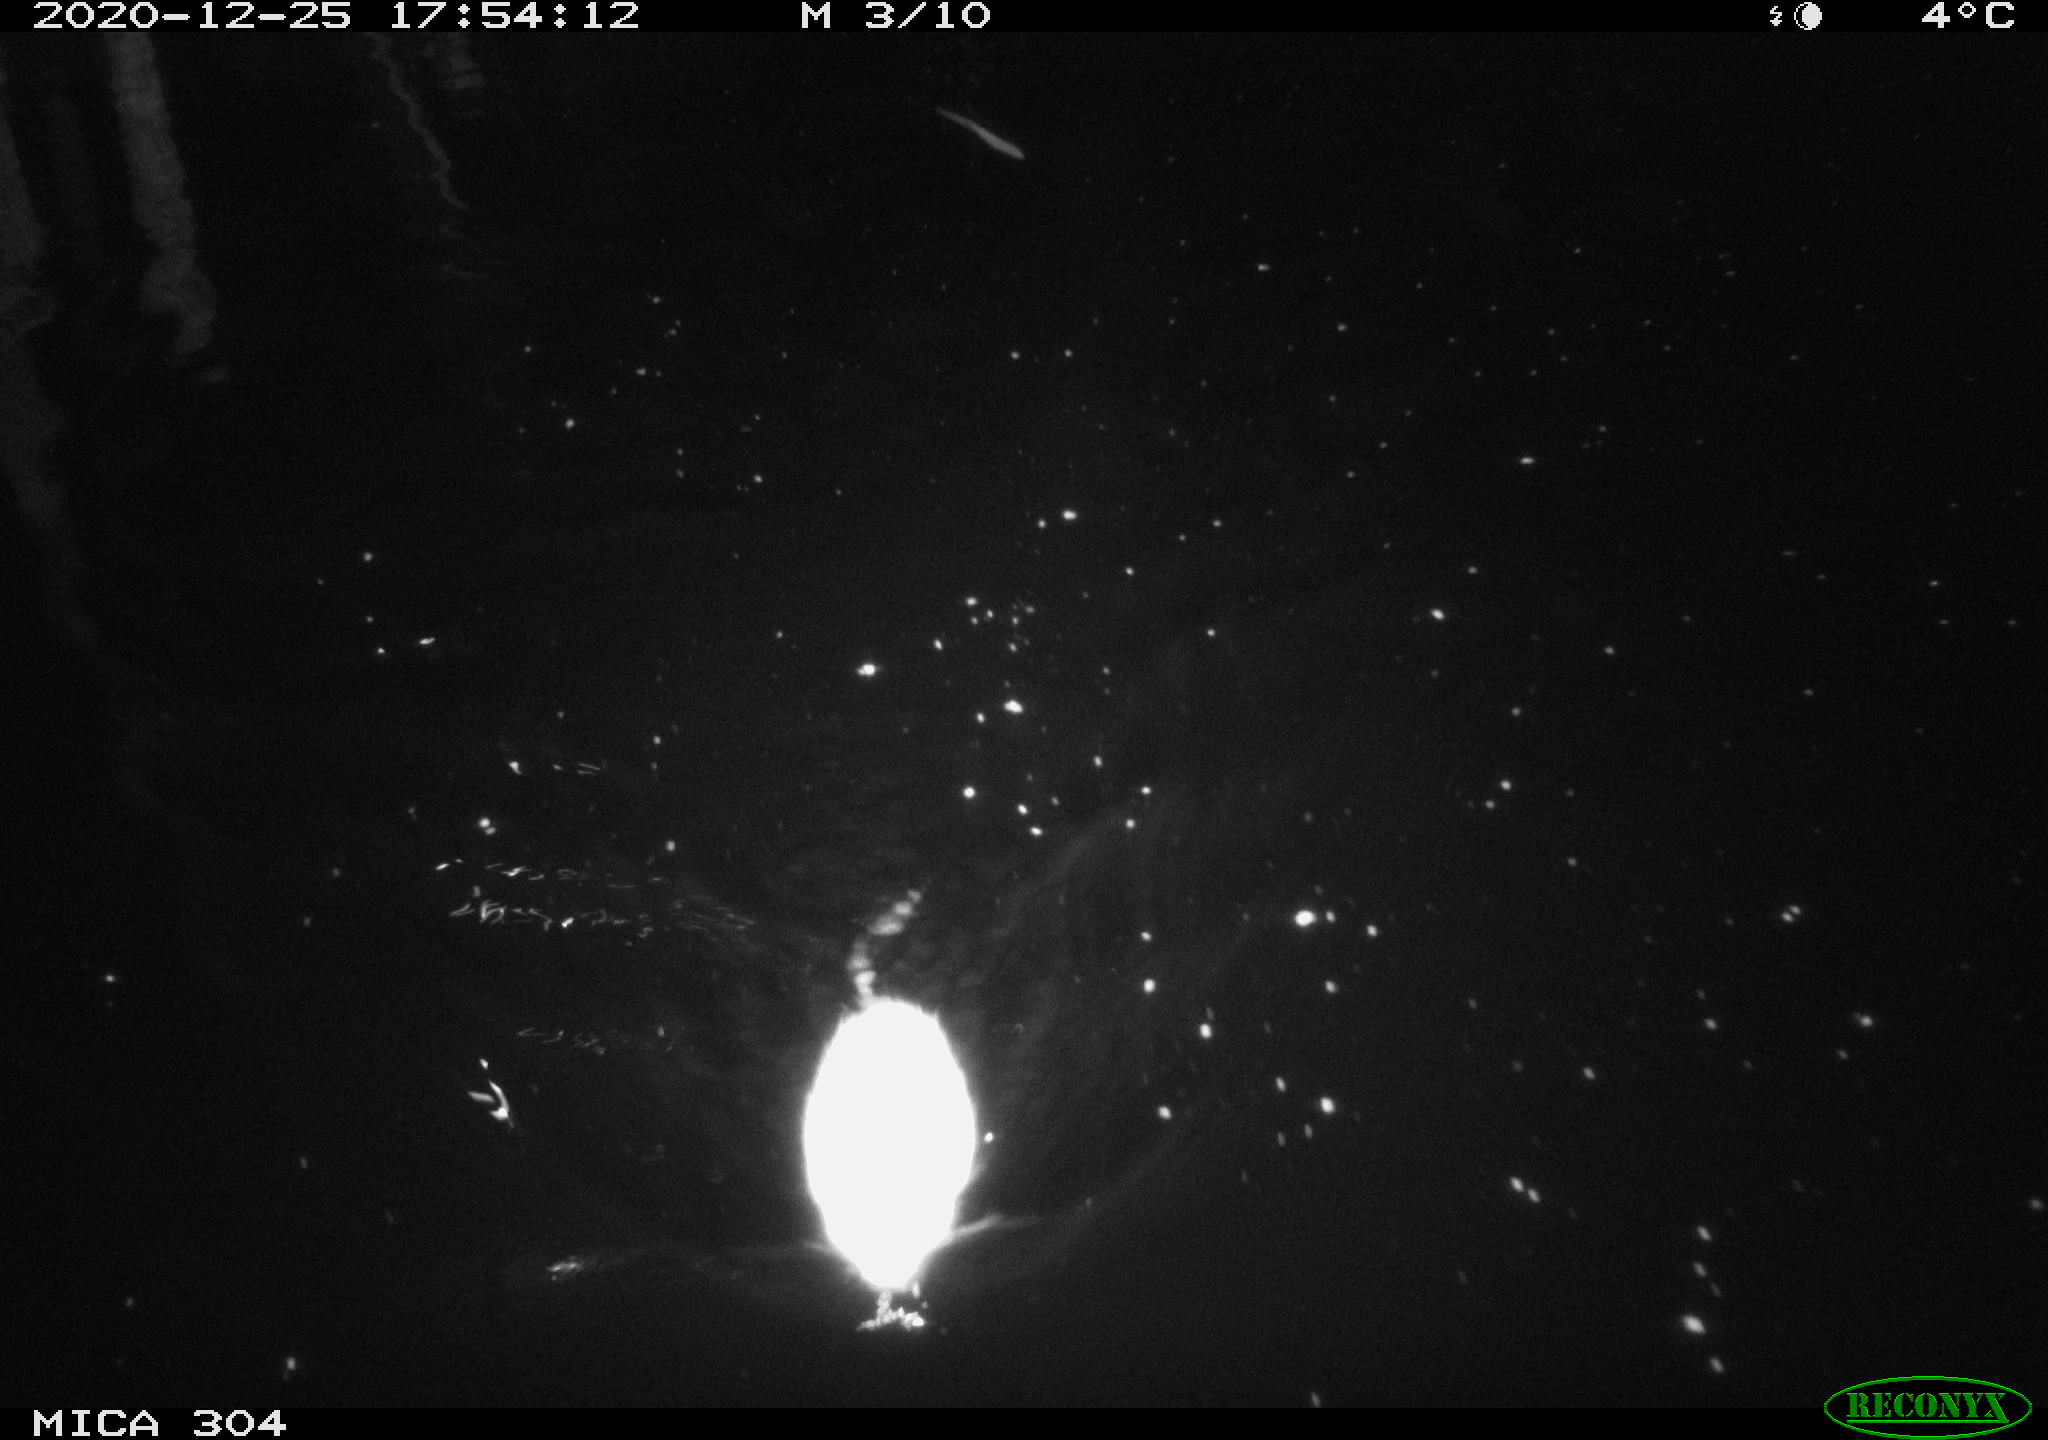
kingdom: Animalia
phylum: Chordata
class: Mammalia
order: Rodentia
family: Cricetidae
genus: Ondatra
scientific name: Ondatra zibethicus
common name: Muskrat
